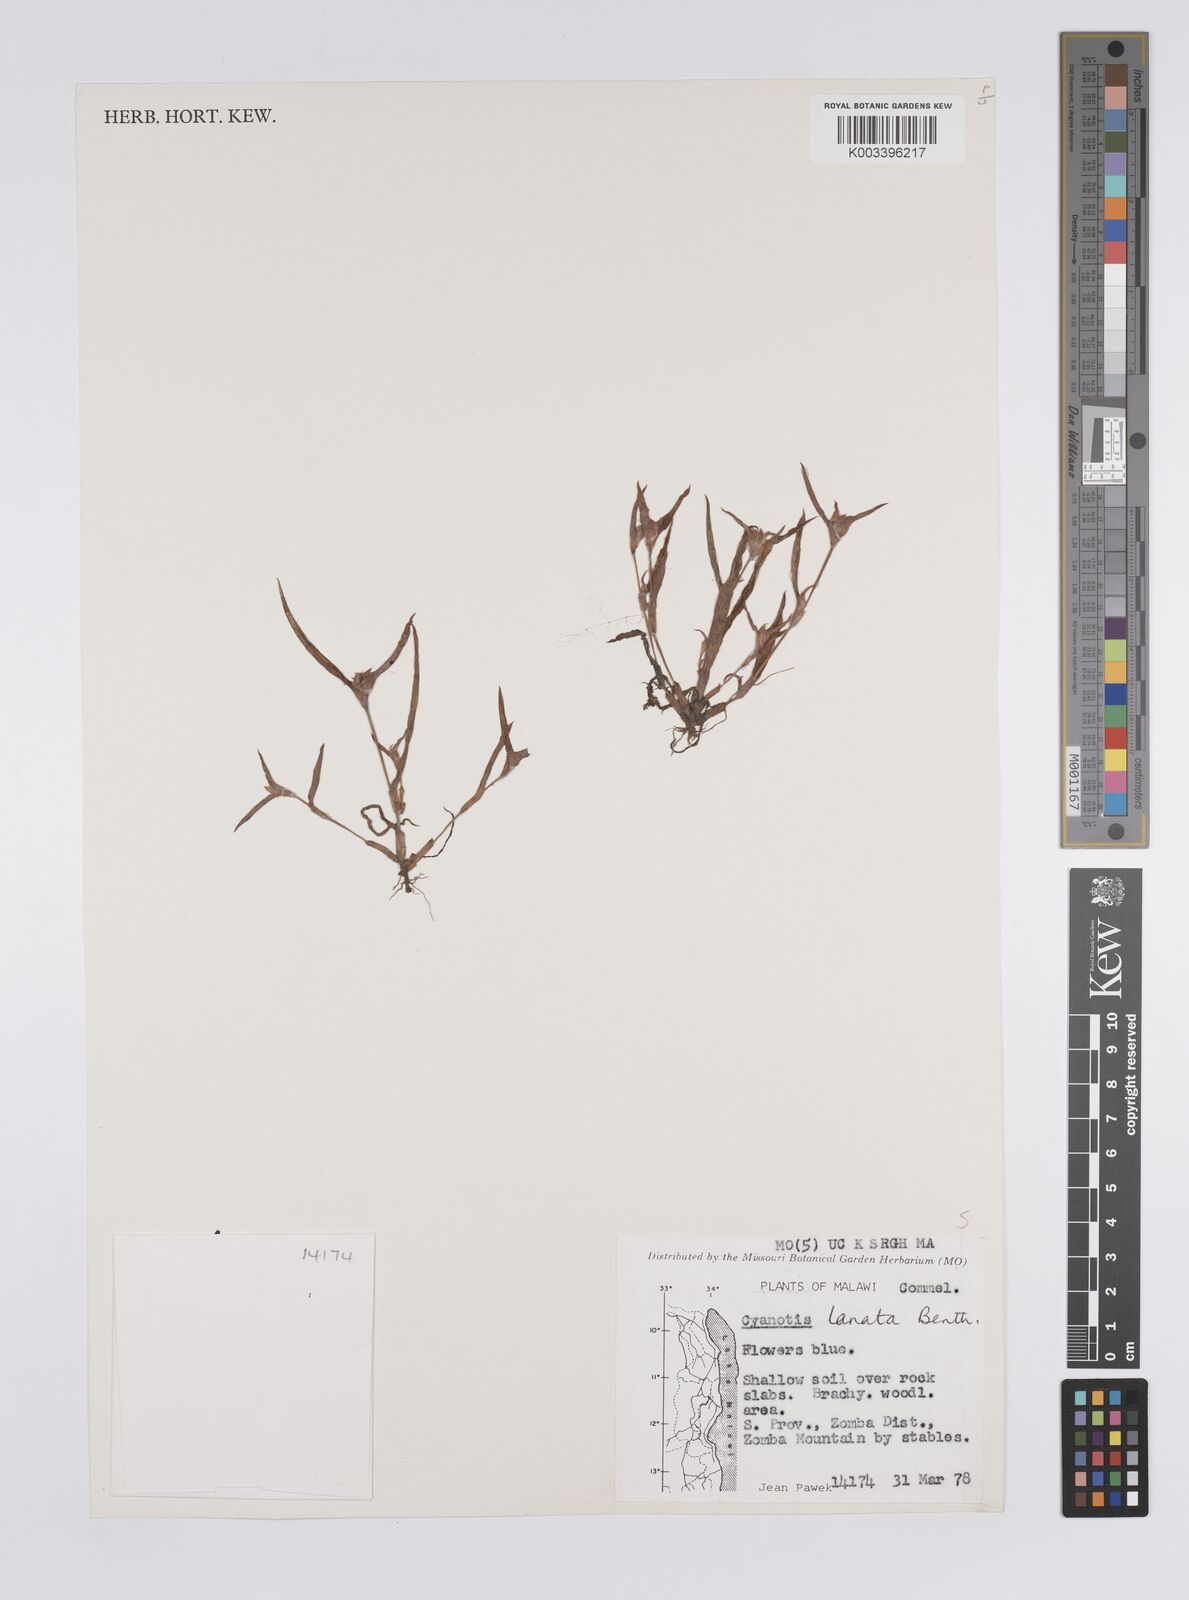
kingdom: Plantae
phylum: Tracheophyta
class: Liliopsida
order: Commelinales
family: Commelinaceae
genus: Cyanotis
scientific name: Cyanotis lanata
